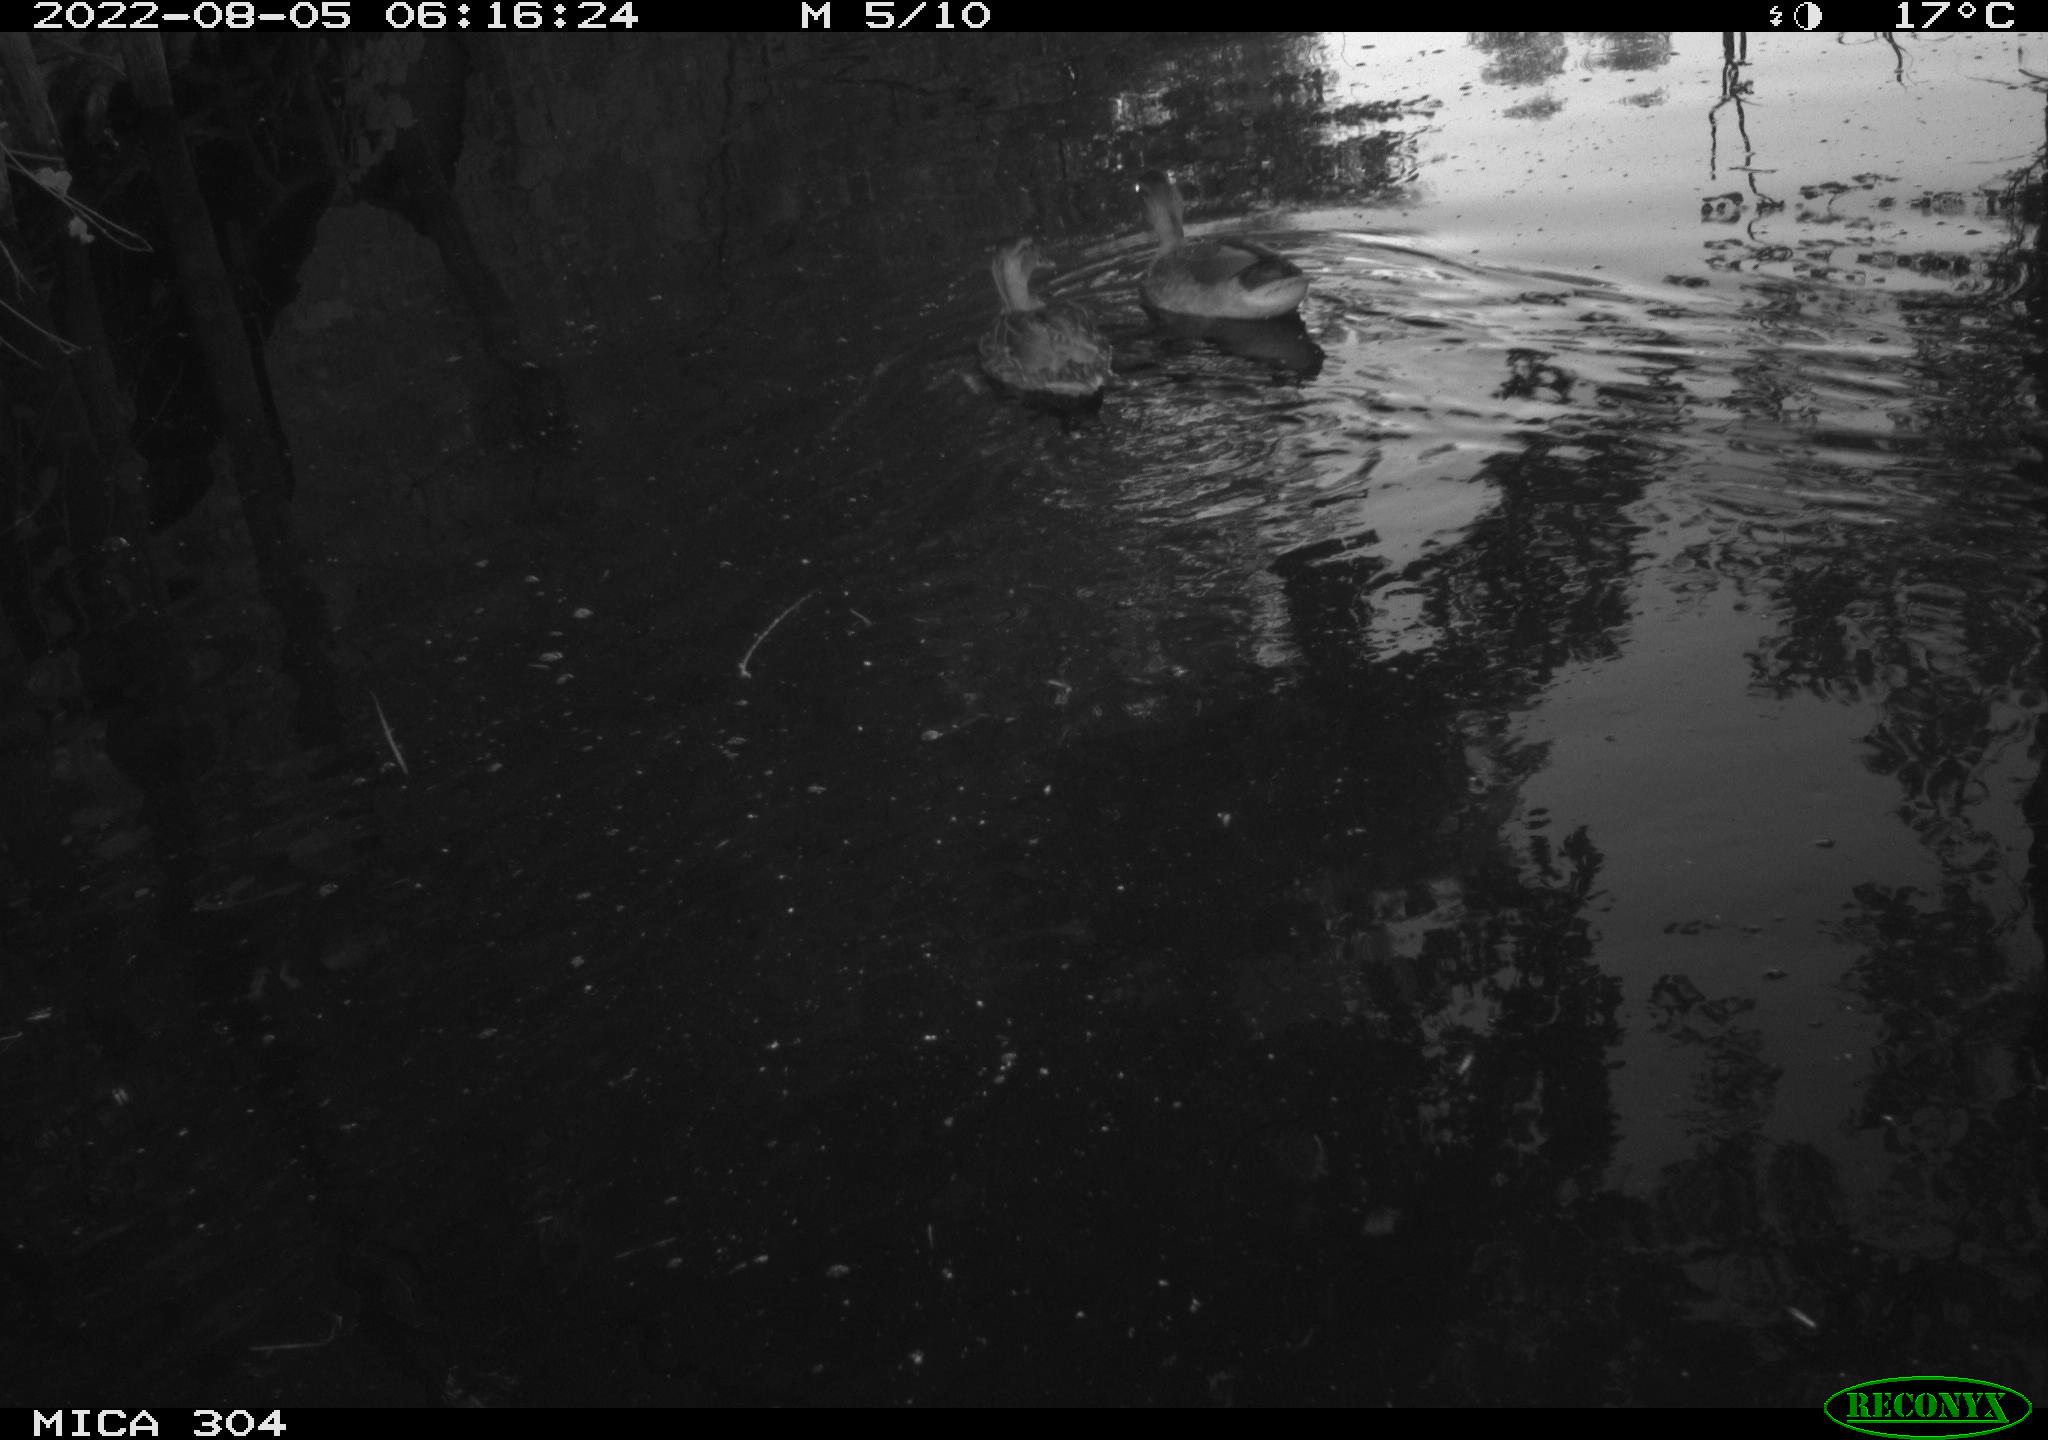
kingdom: Animalia
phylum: Chordata
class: Aves
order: Anseriformes
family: Anatidae
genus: Anas
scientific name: Anas platyrhynchos
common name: Mallard
